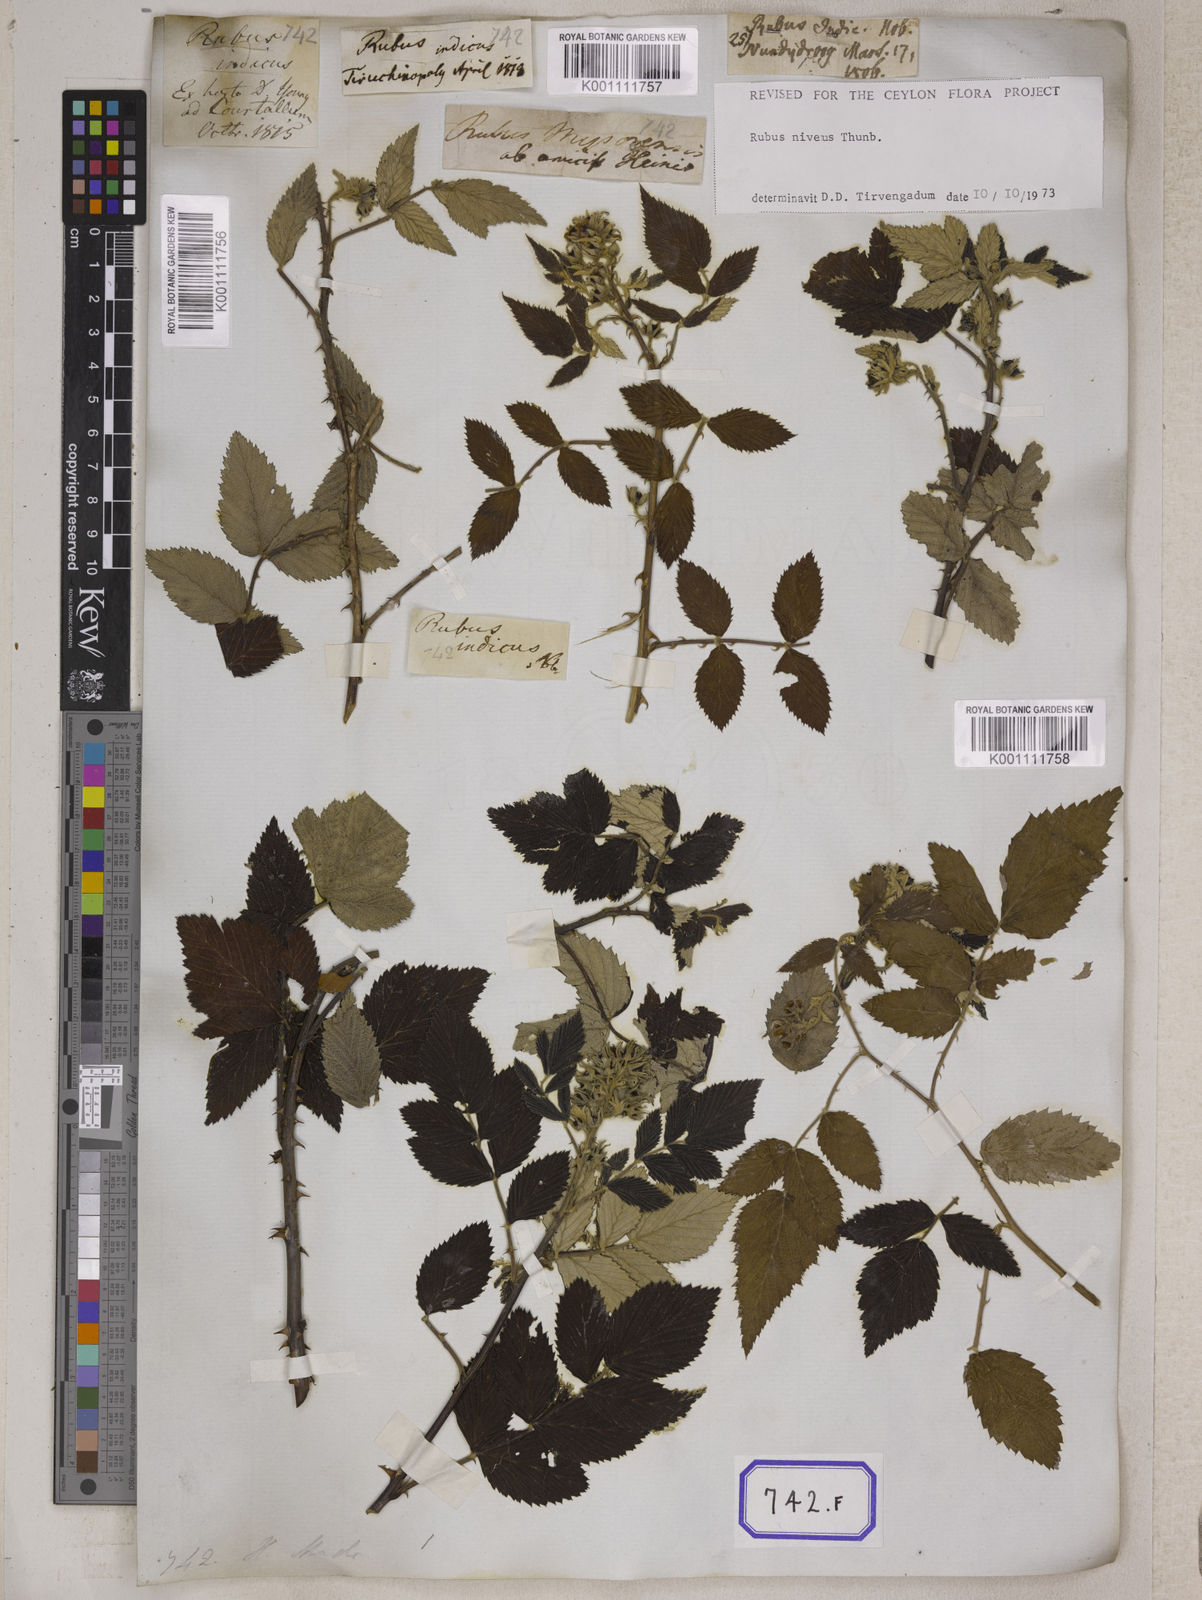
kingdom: Plantae
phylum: Tracheophyta
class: Magnoliopsida
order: Rosales
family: Rosaceae
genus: Rubus
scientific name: Rubus niveus
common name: Snowpeaks raspberry
